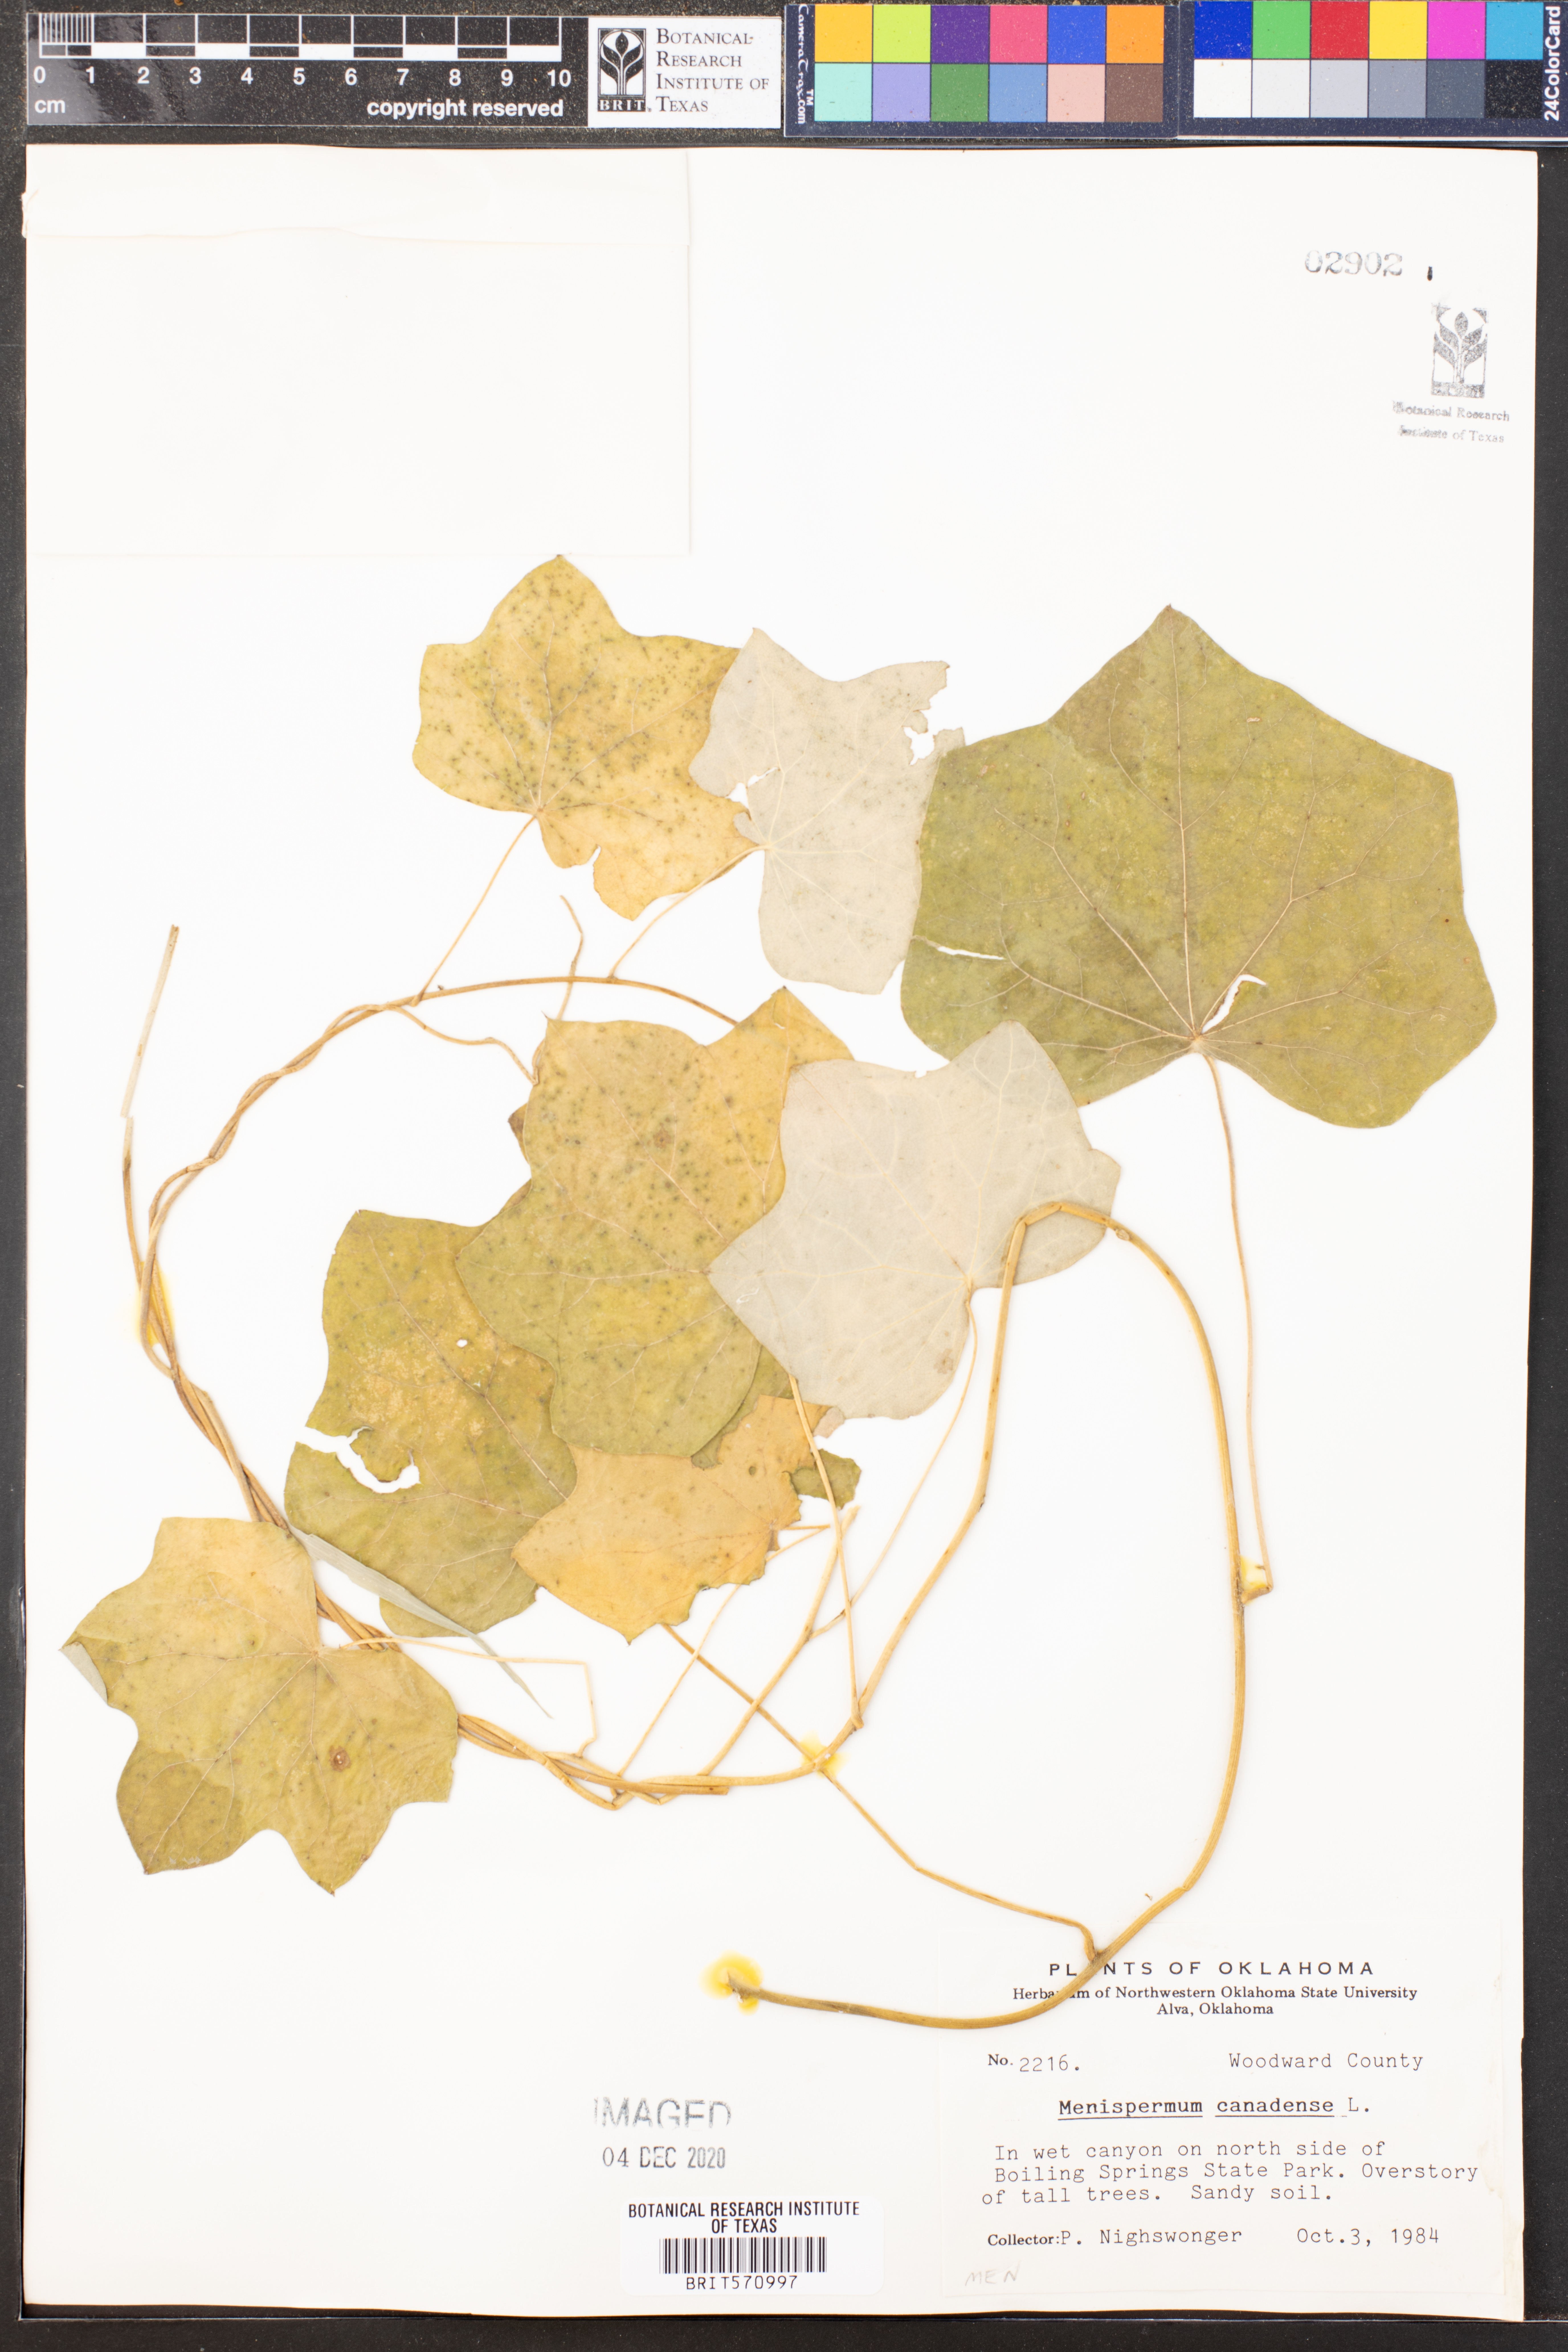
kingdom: Plantae
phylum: Tracheophyta
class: Magnoliopsida
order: Ranunculales
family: Menispermaceae
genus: Menispermum
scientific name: Menispermum canadense
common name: Moonseed
